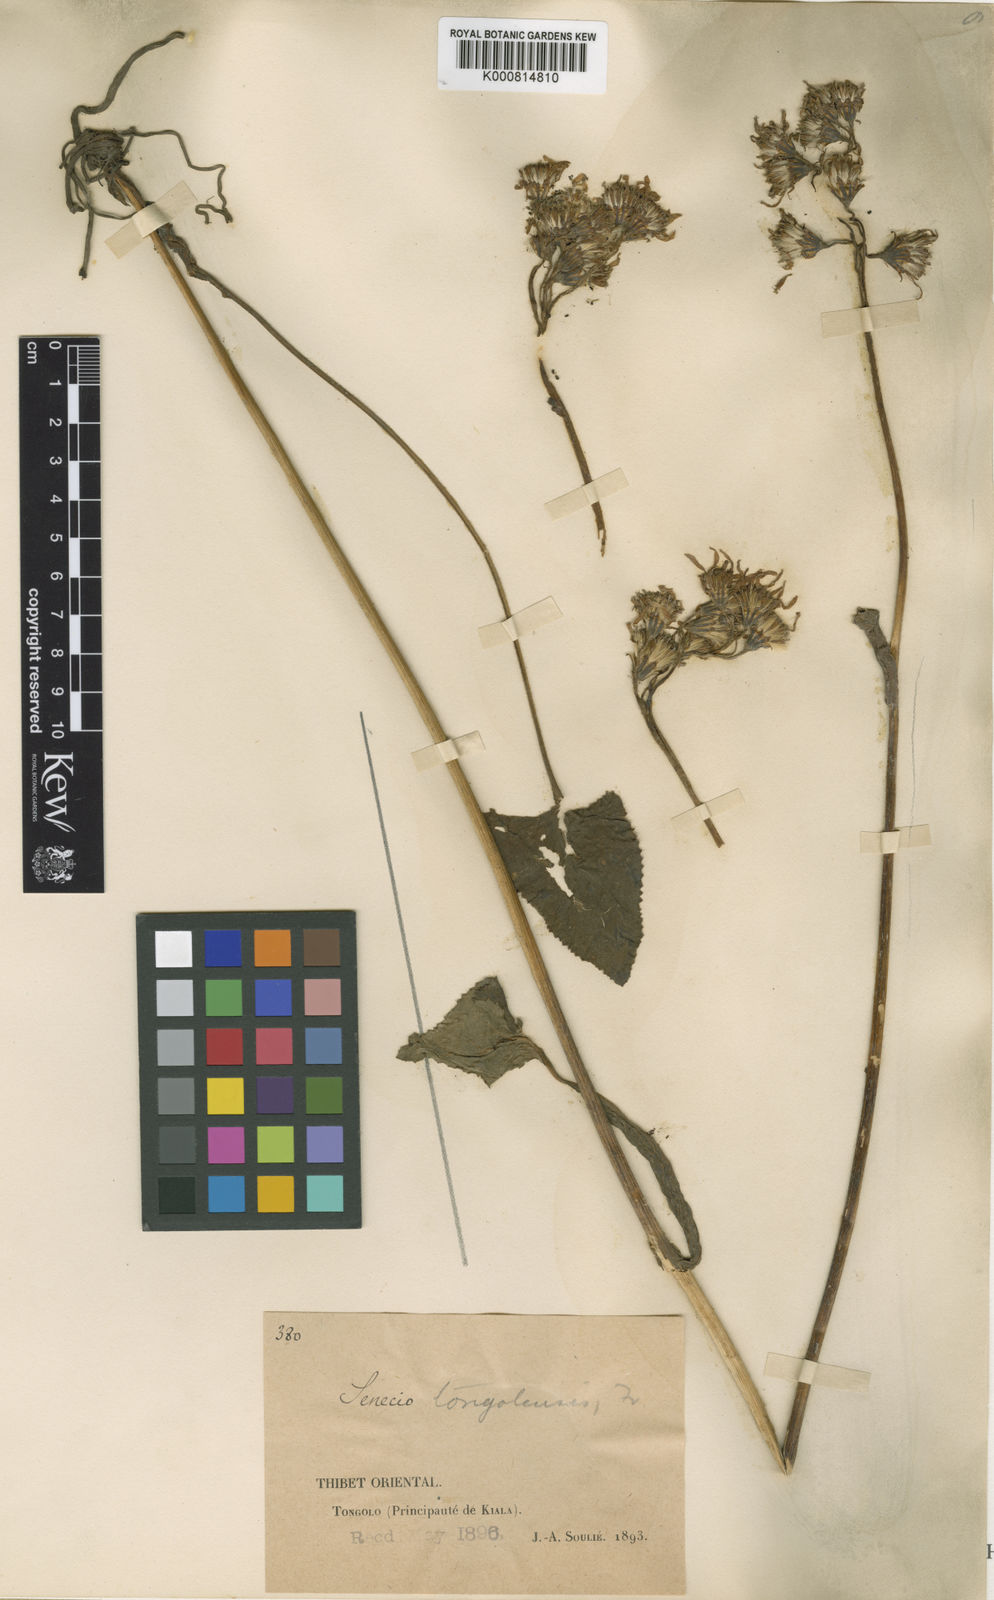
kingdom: Plantae
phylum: Tracheophyta
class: Magnoliopsida
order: Asterales
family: Asteraceae
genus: Ligularia
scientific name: Ligularia
